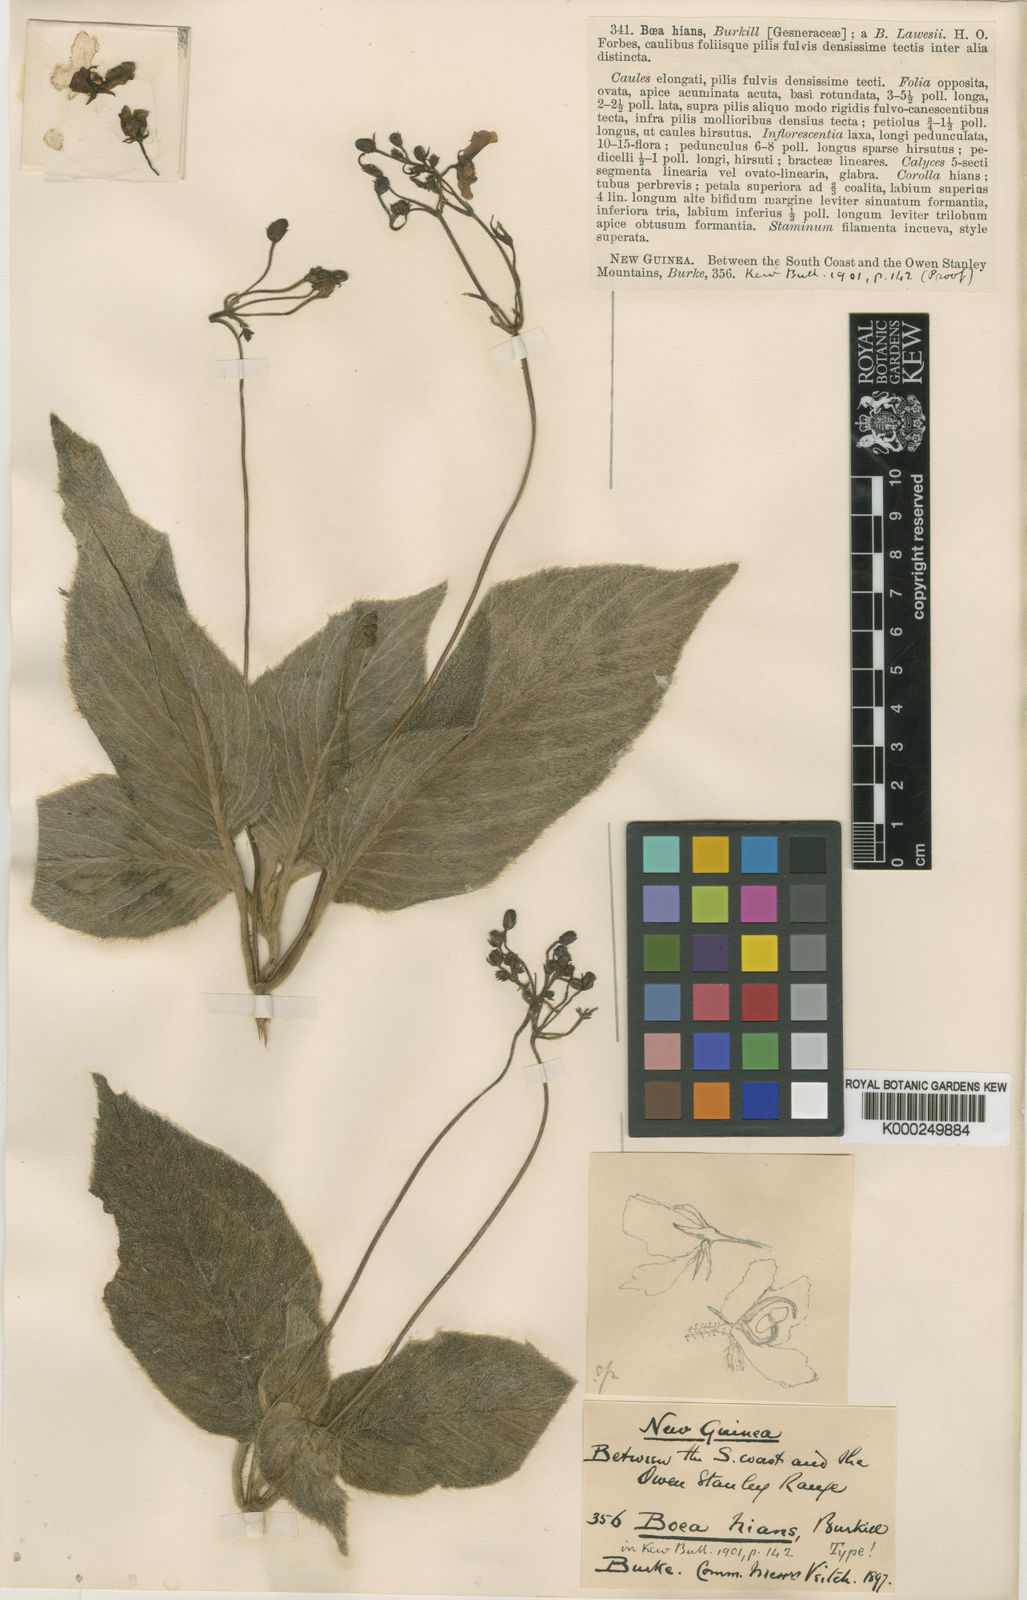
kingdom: Plantae
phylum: Tracheophyta
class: Magnoliopsida
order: Lamiales
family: Gesneriaceae
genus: Boea
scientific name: Boea hians
